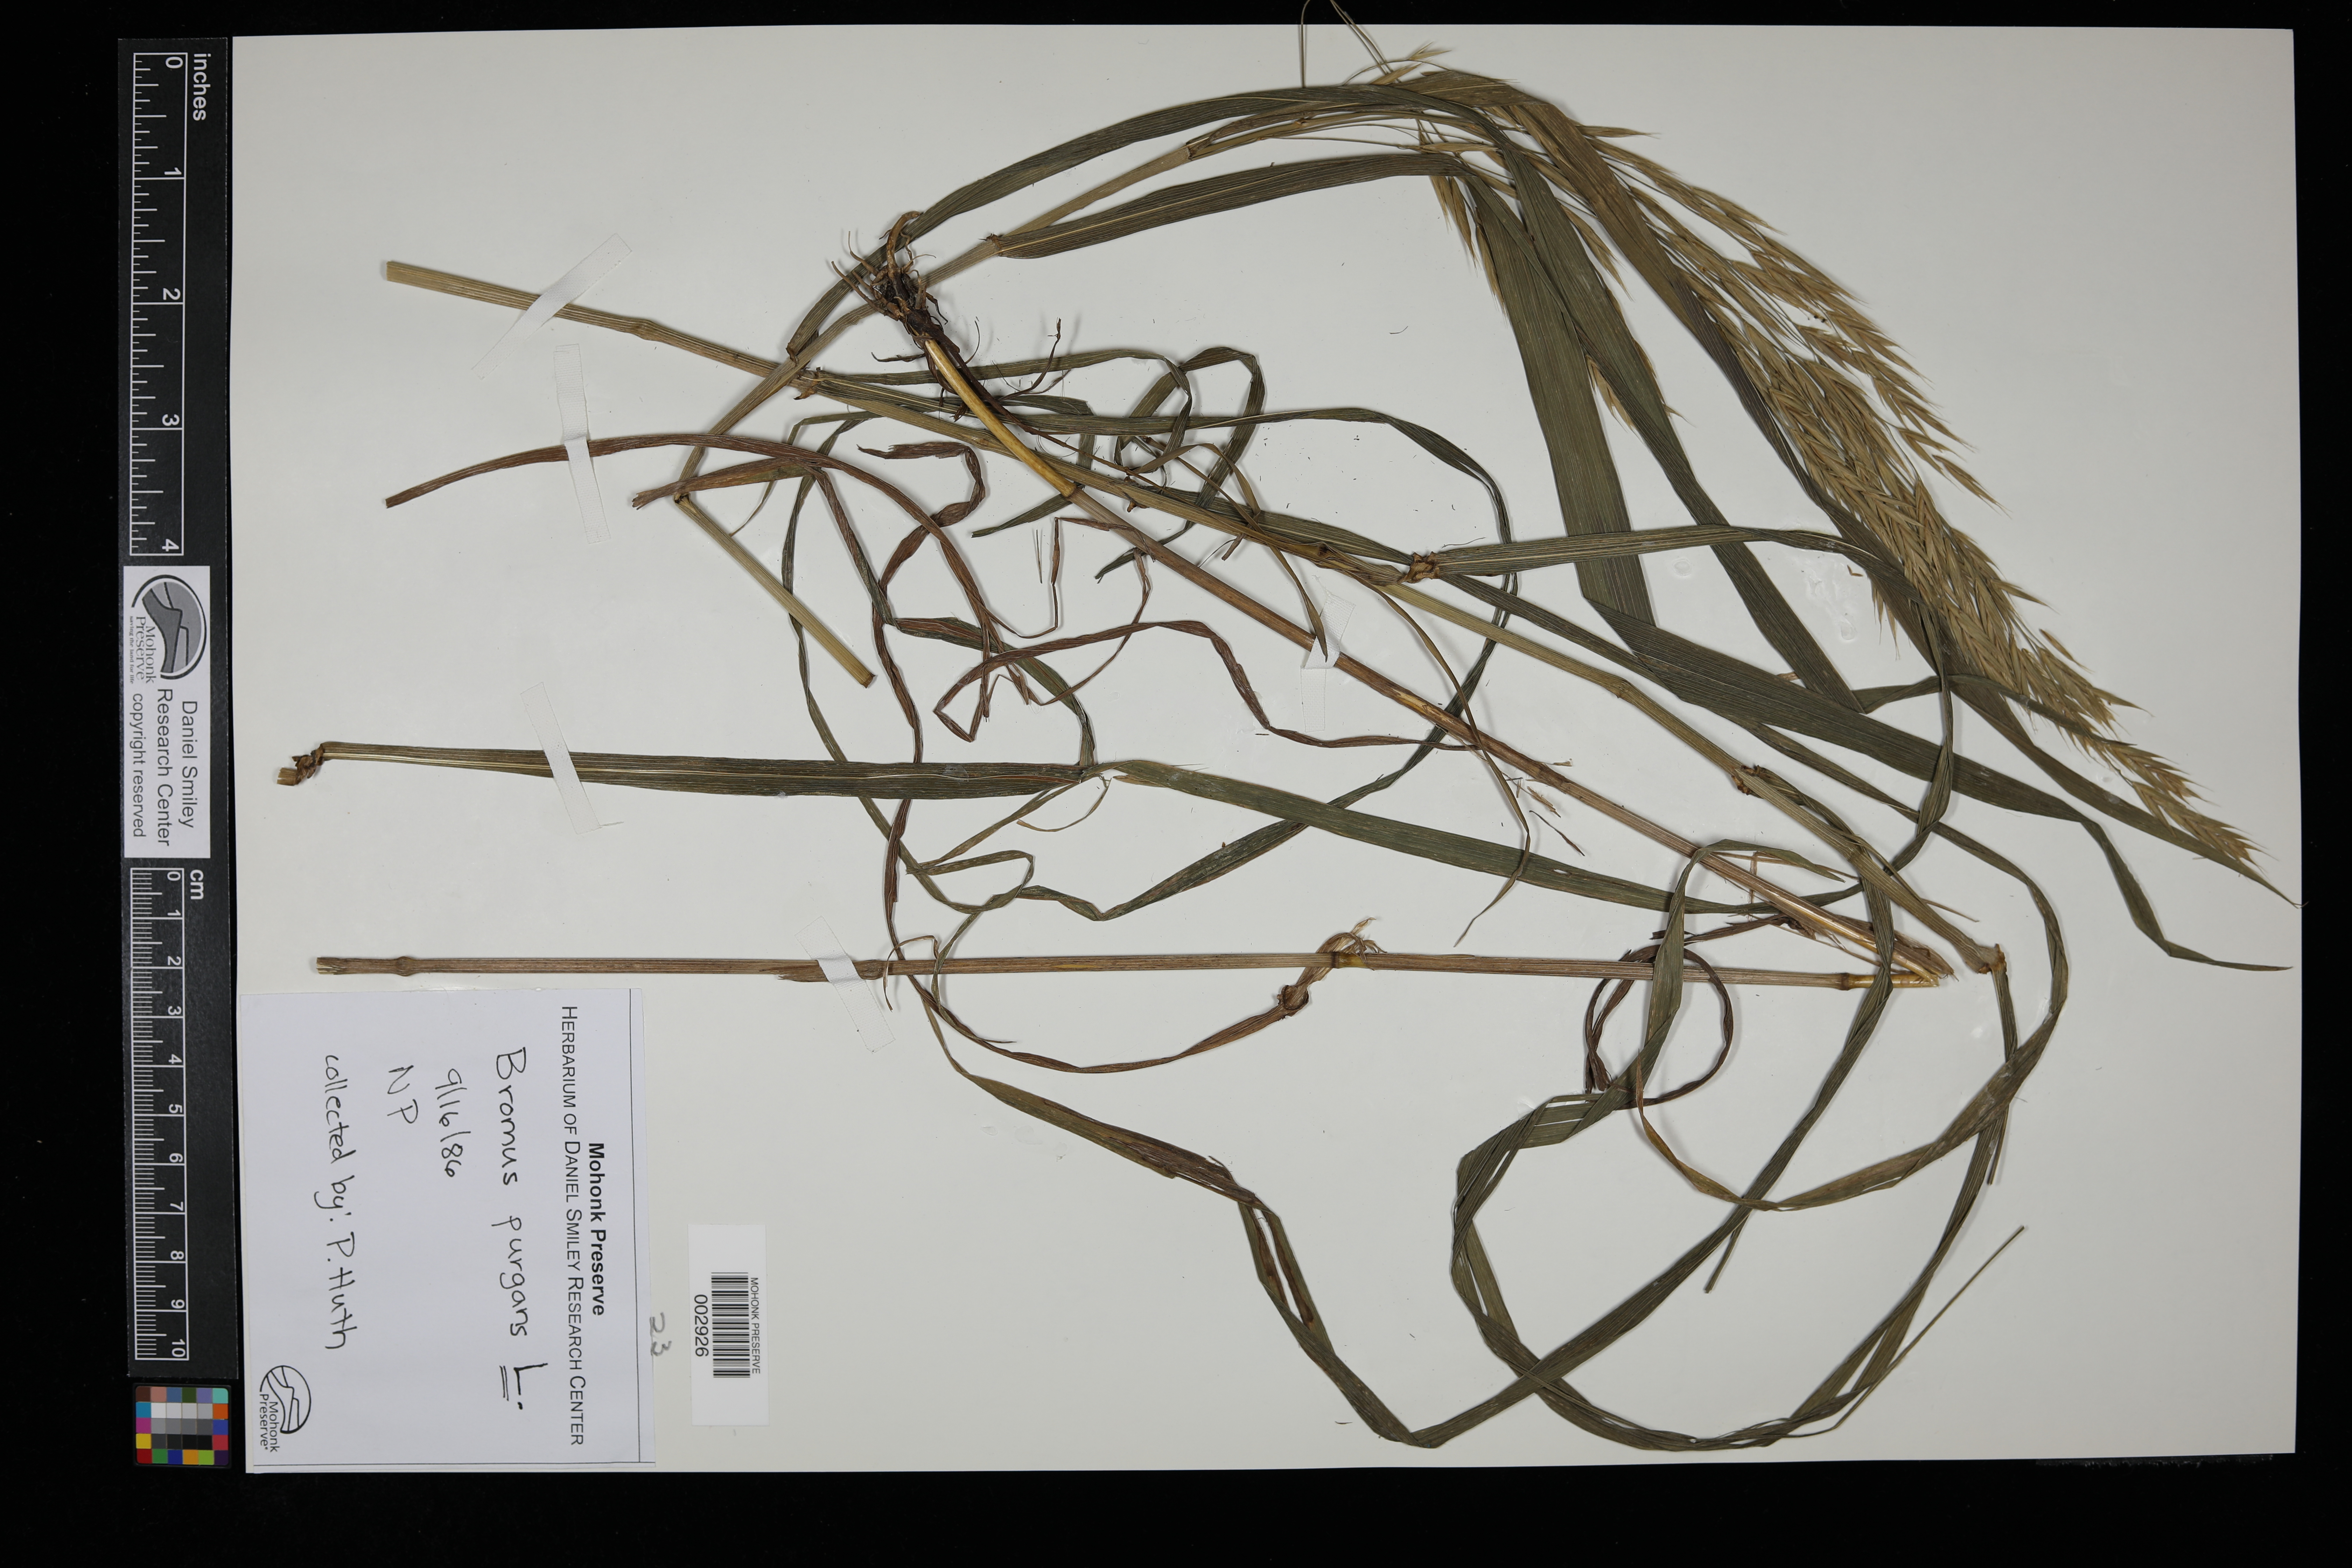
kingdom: Plantae
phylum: Tracheophyta
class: Liliopsida
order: Poales
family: Poaceae
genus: Bromus
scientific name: Bromus kalmii
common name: Kalm brome
